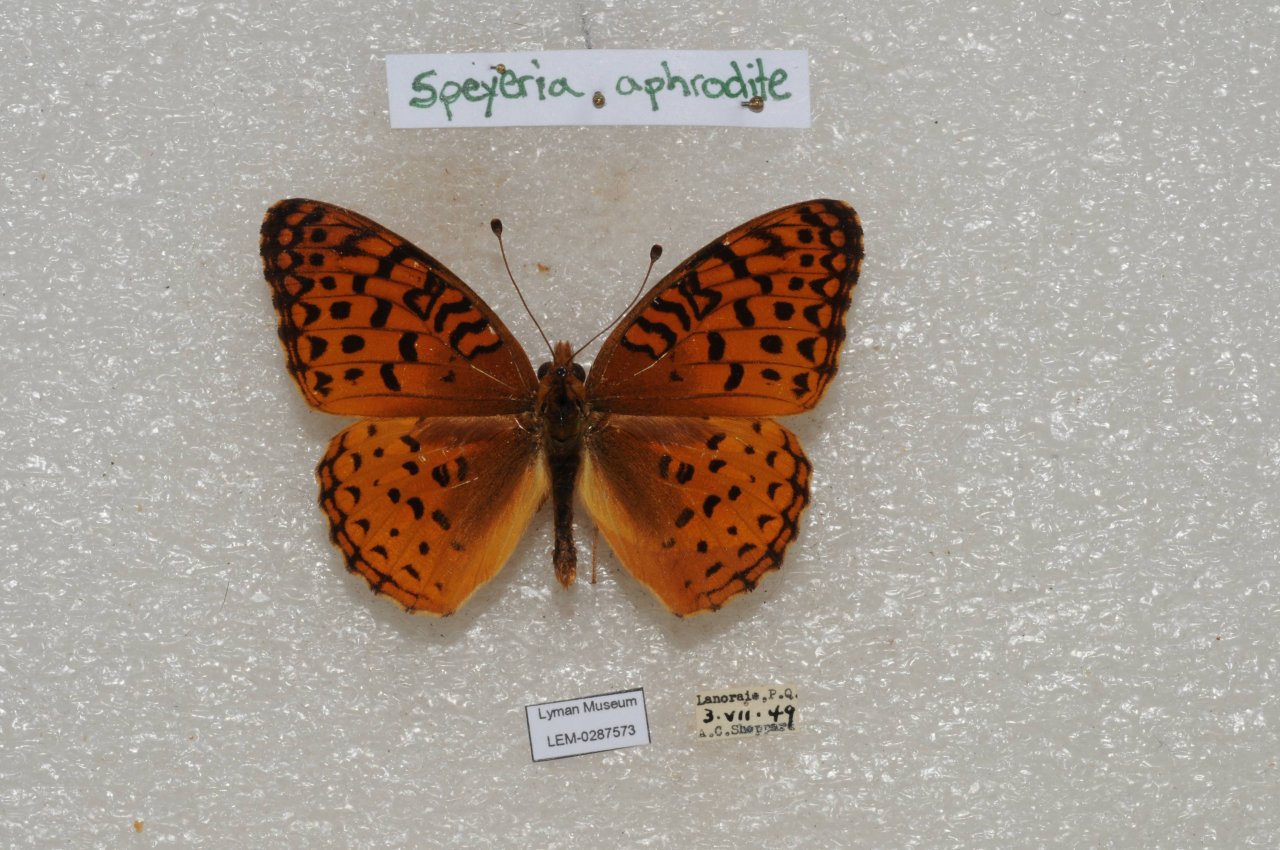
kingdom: Animalia
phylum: Arthropoda
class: Insecta
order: Lepidoptera
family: Nymphalidae
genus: Speyeria
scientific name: Speyeria aphrodite
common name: Aphrodite Fritillary
